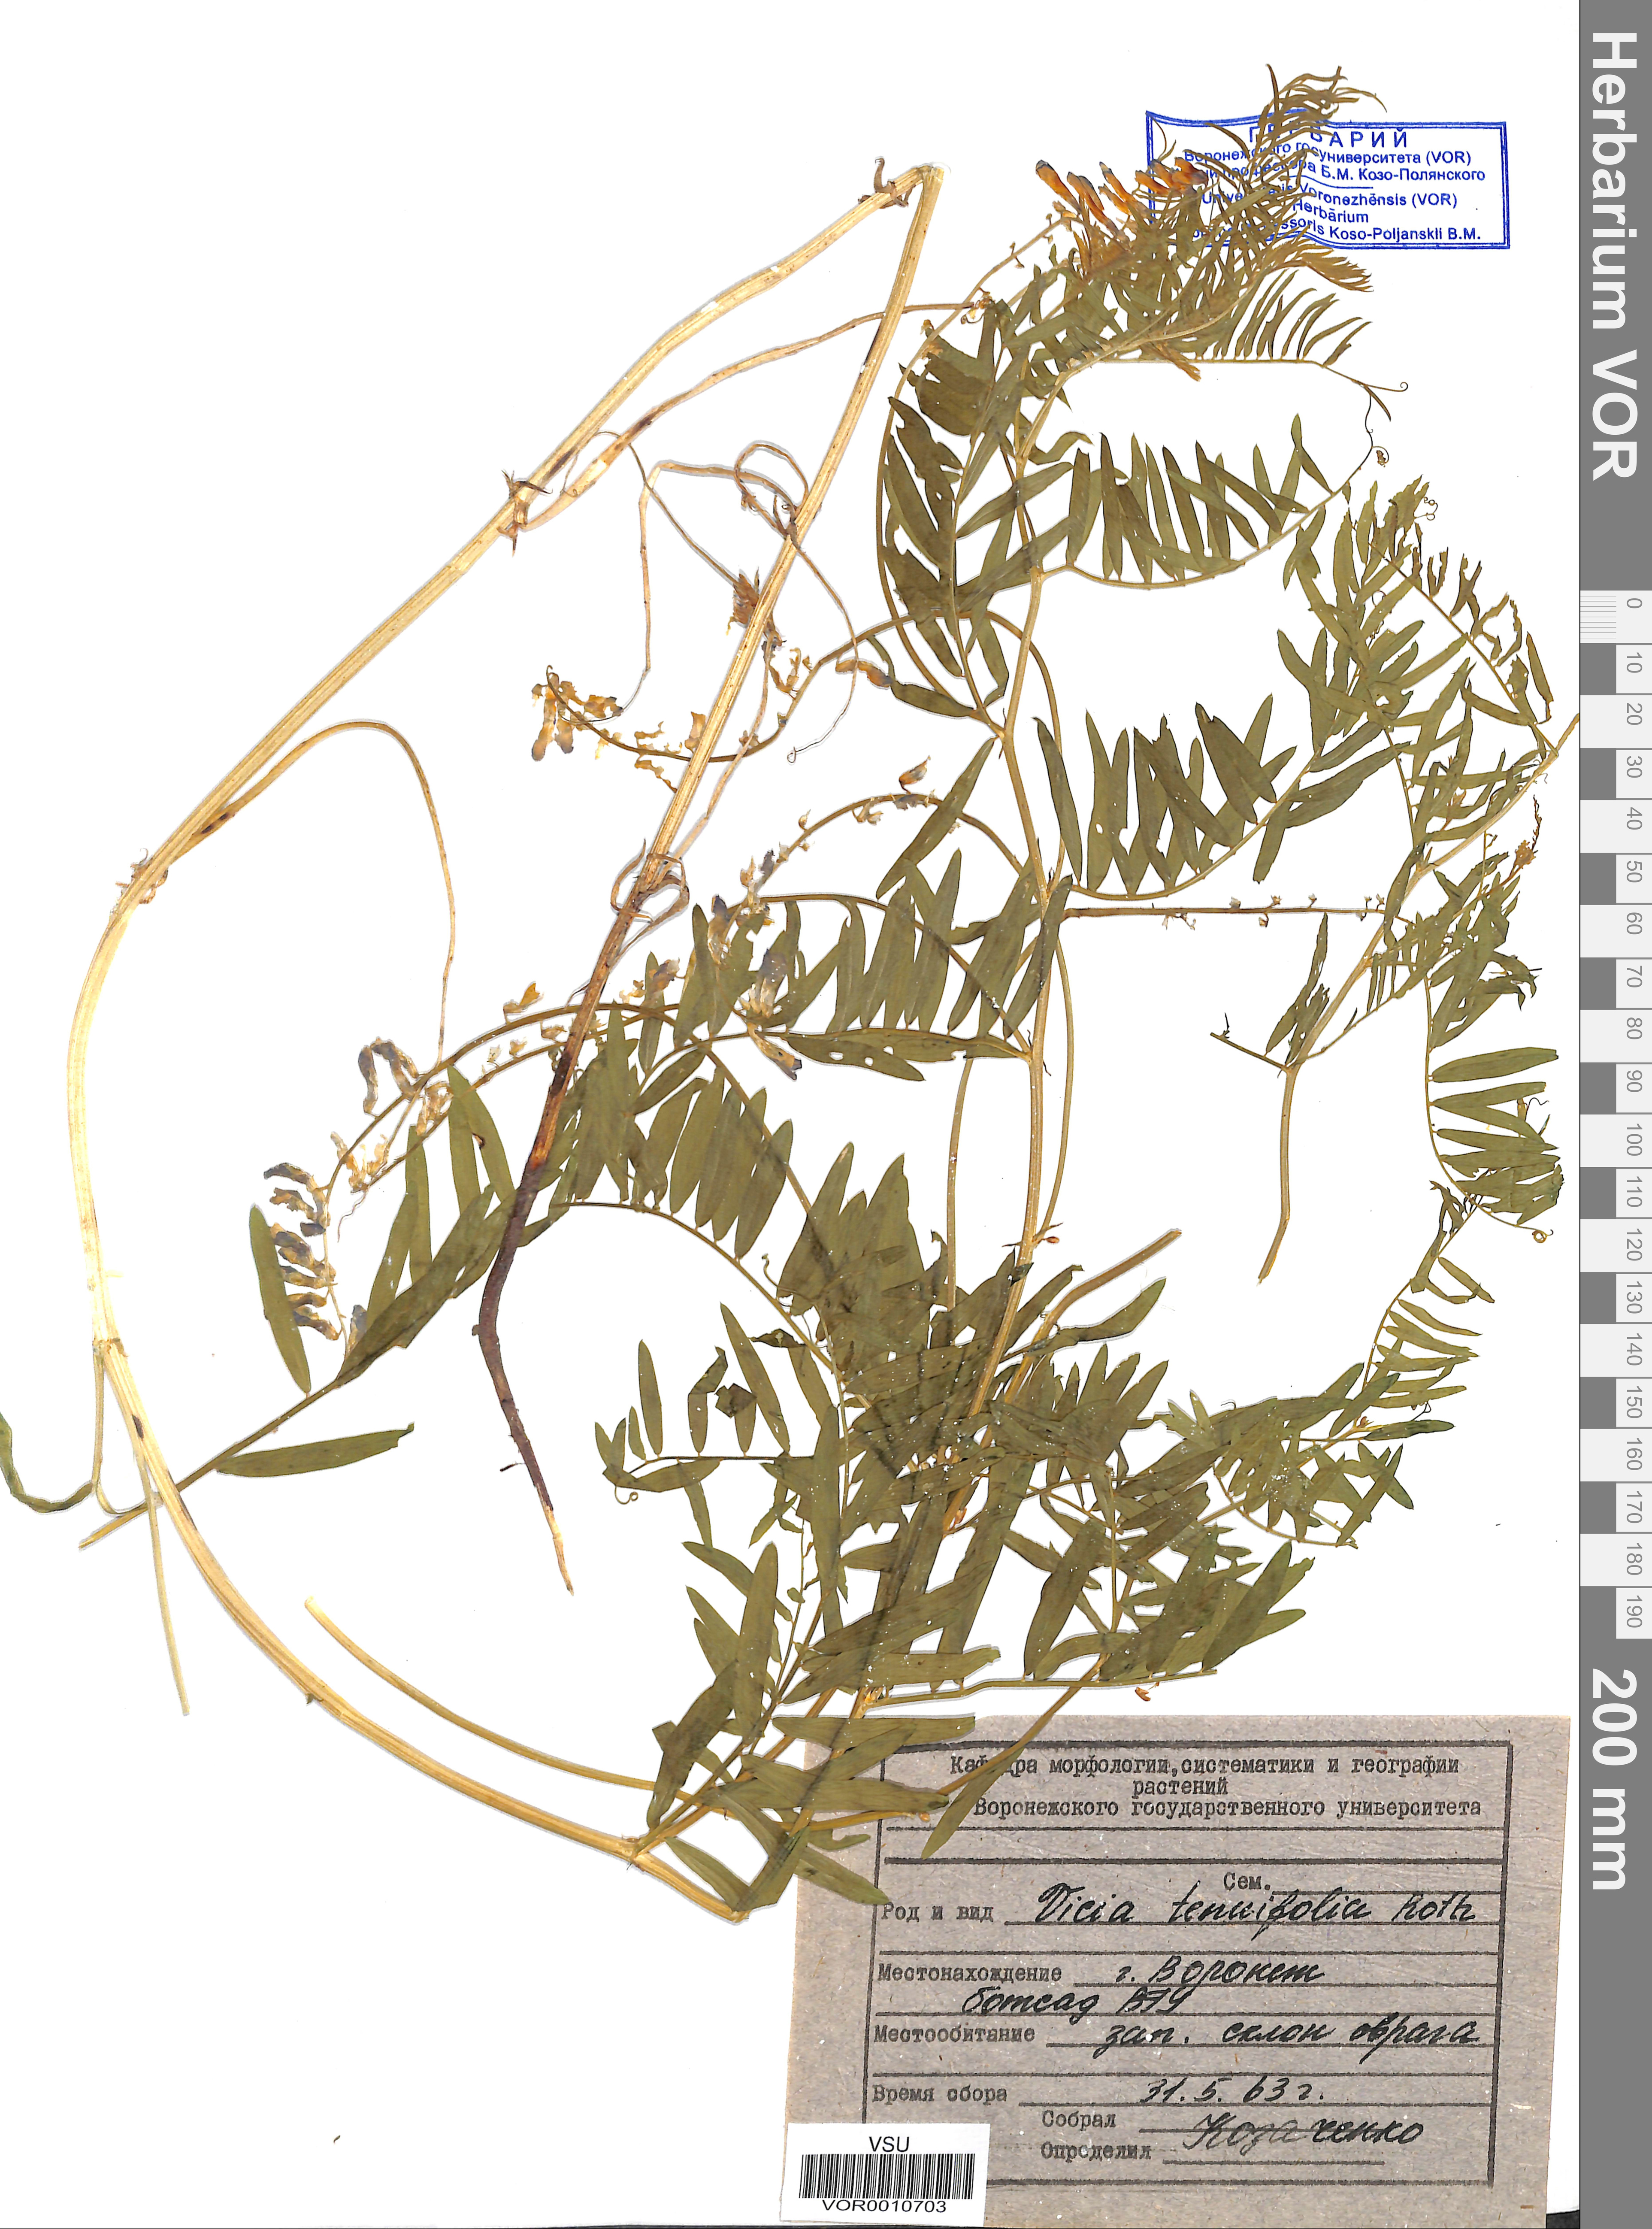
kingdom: Plantae
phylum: Tracheophyta
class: Magnoliopsida
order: Fabales
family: Fabaceae
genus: Vicia
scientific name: Vicia tenuifolia
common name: Fine-leaved vetch
